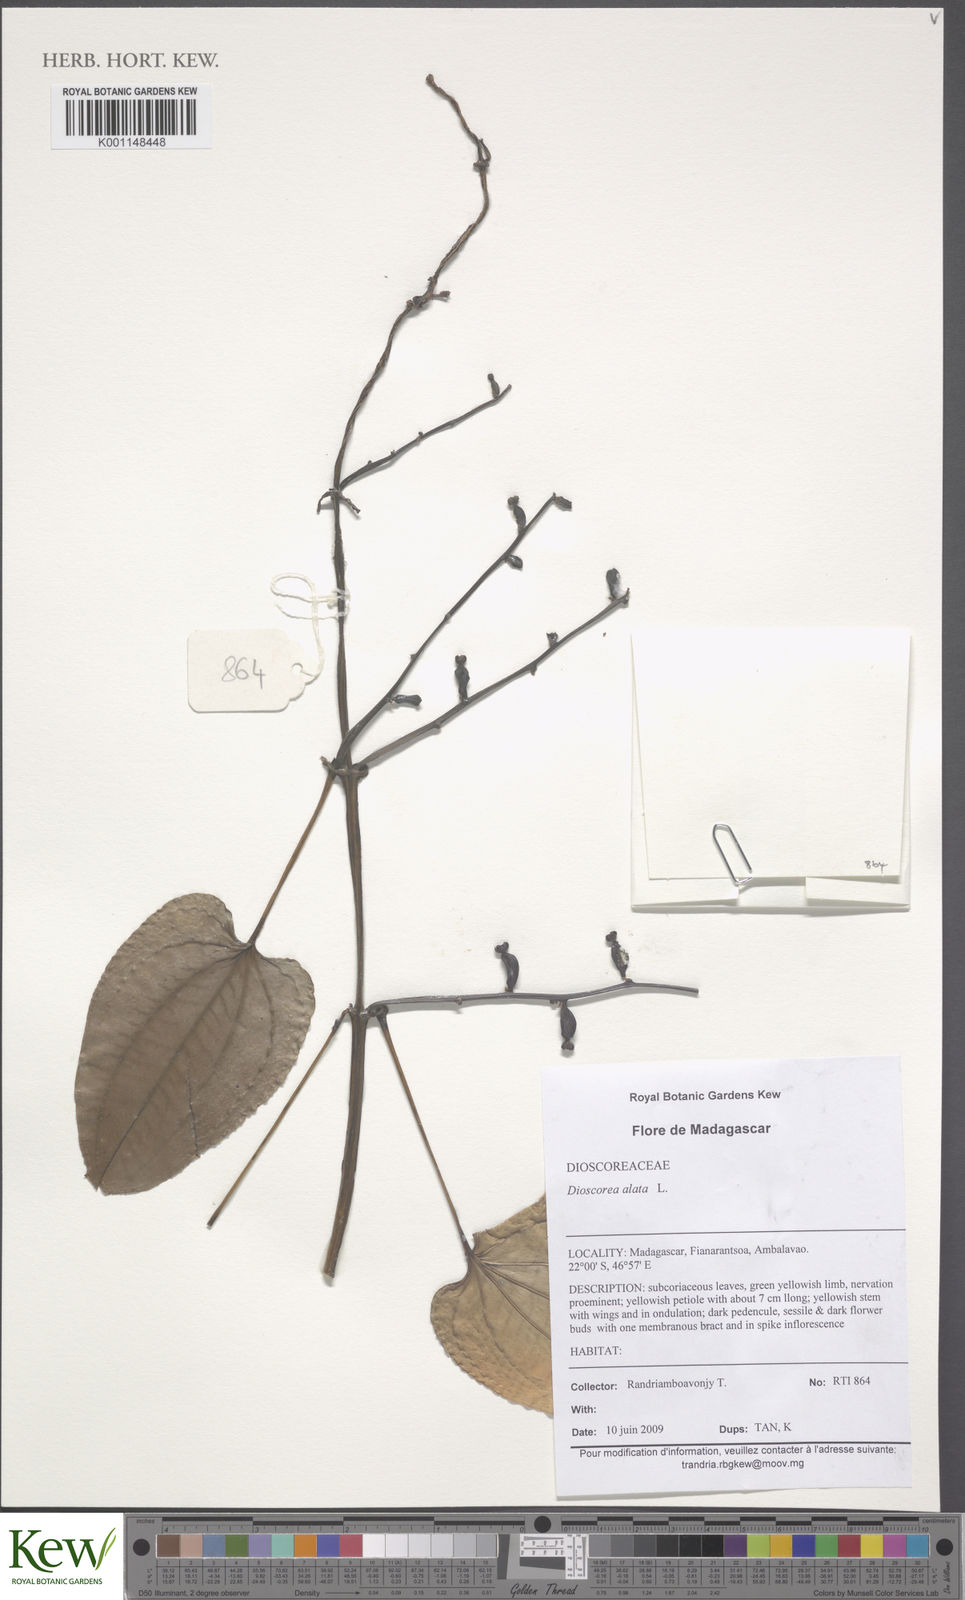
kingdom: Plantae
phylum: Tracheophyta
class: Liliopsida
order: Dioscoreales
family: Dioscoreaceae
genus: Dioscorea
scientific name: Dioscorea alata
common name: Water yam
